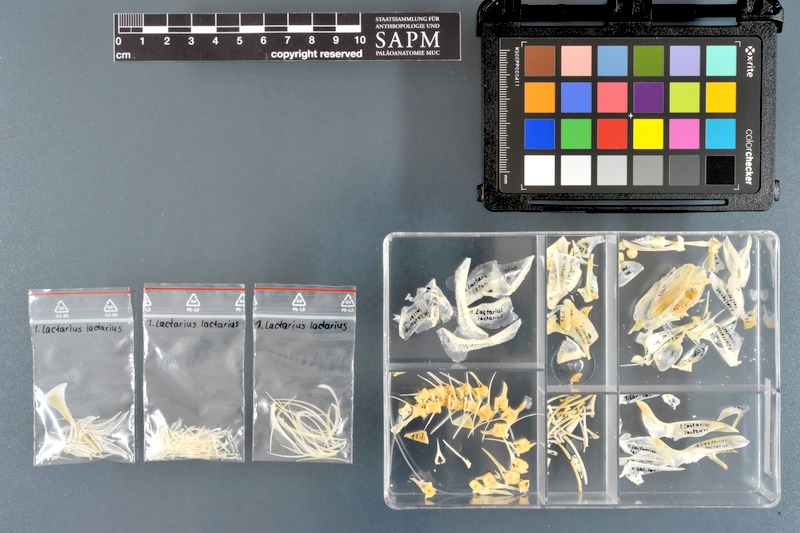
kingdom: Animalia
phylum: Chordata
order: Perciformes
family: Lactariidae
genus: Lactarius
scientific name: Lactarius lactarius
